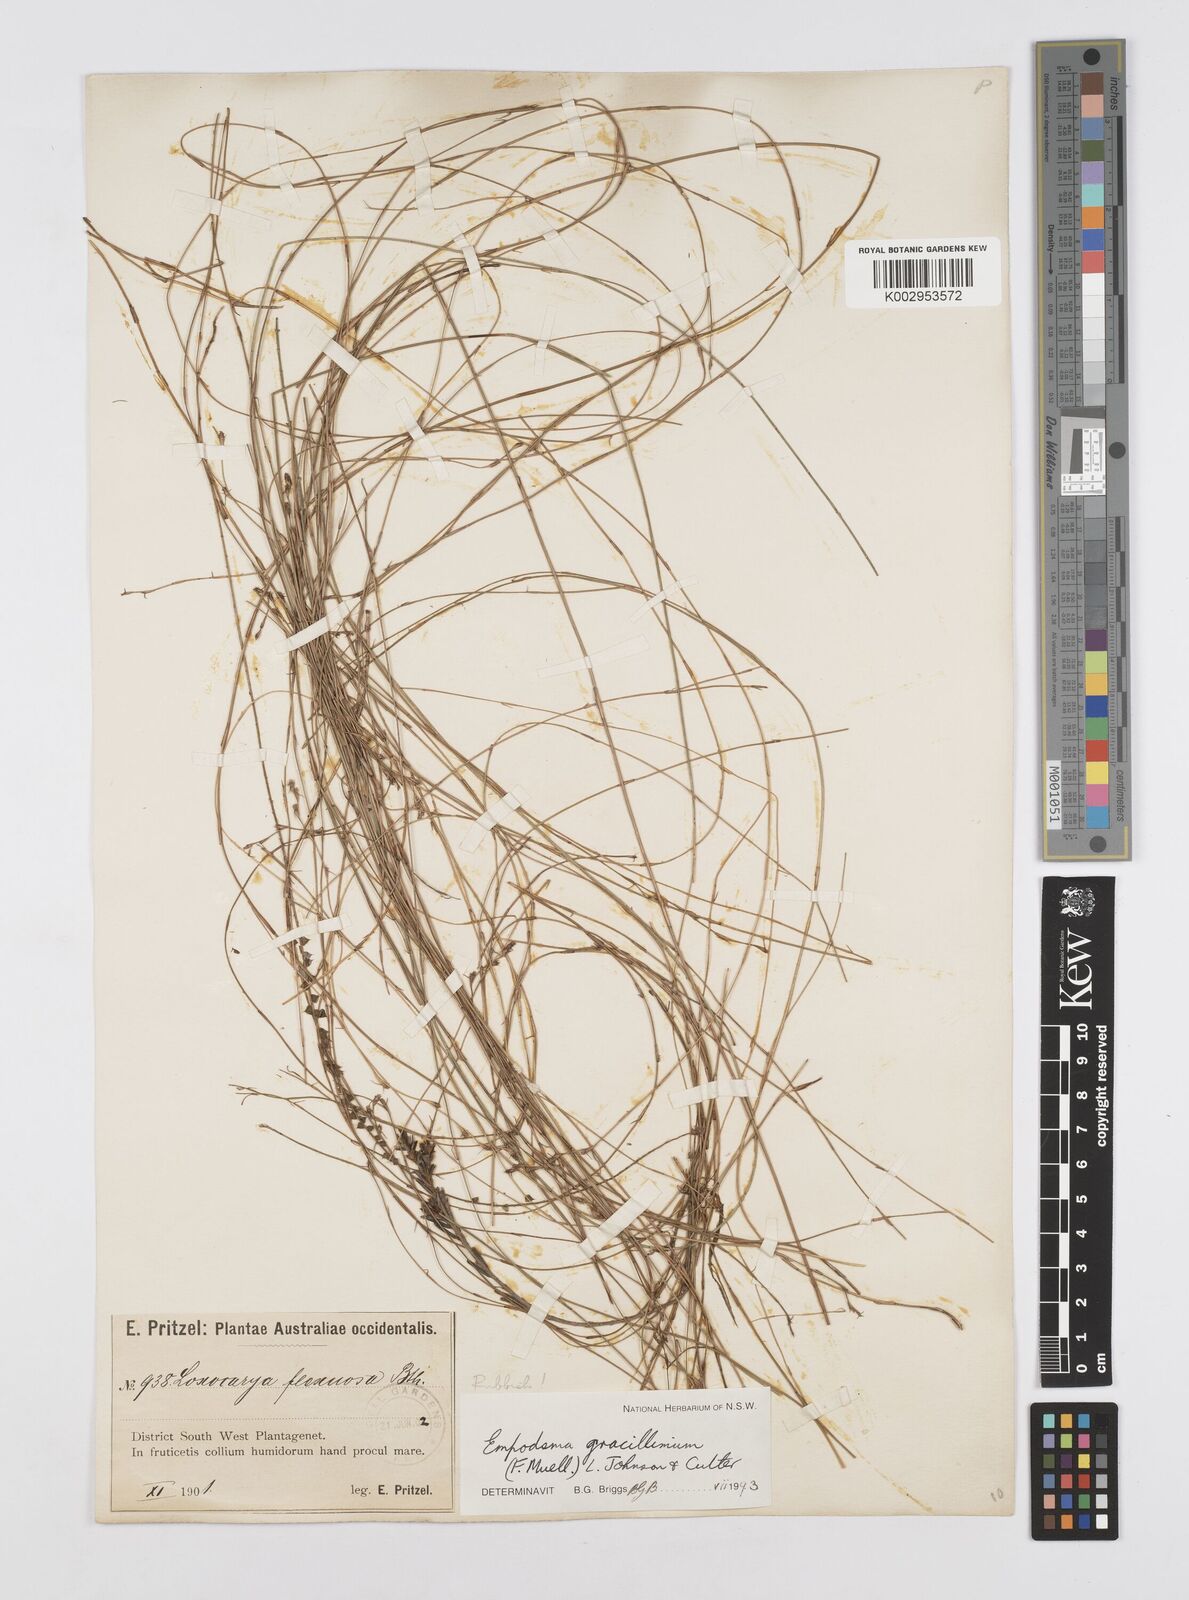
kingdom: Plantae
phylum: Tracheophyta
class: Liliopsida
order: Poales
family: Restionaceae
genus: Empodisma
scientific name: Empodisma gracillimum
